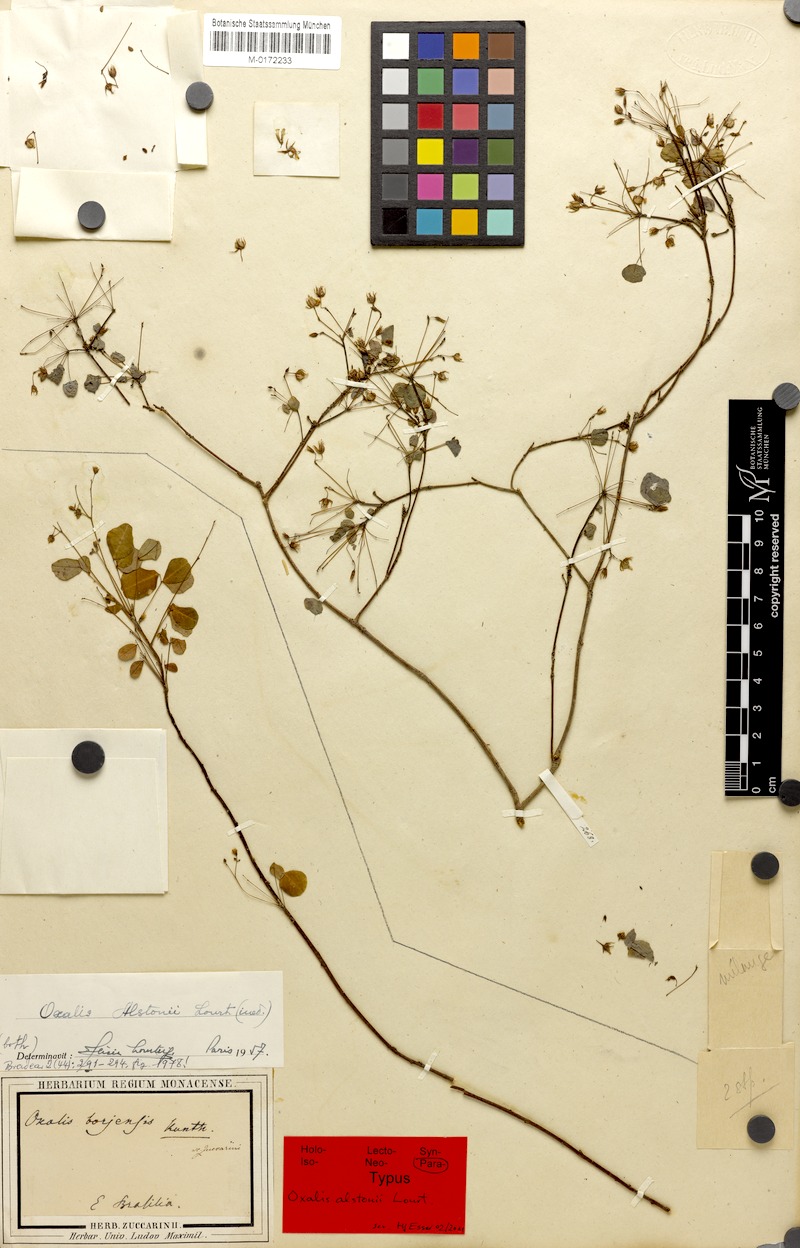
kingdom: Plantae
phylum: Tracheophyta
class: Magnoliopsida
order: Oxalidales
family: Oxalidaceae
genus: Oxalis
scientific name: Oxalis alstonii
